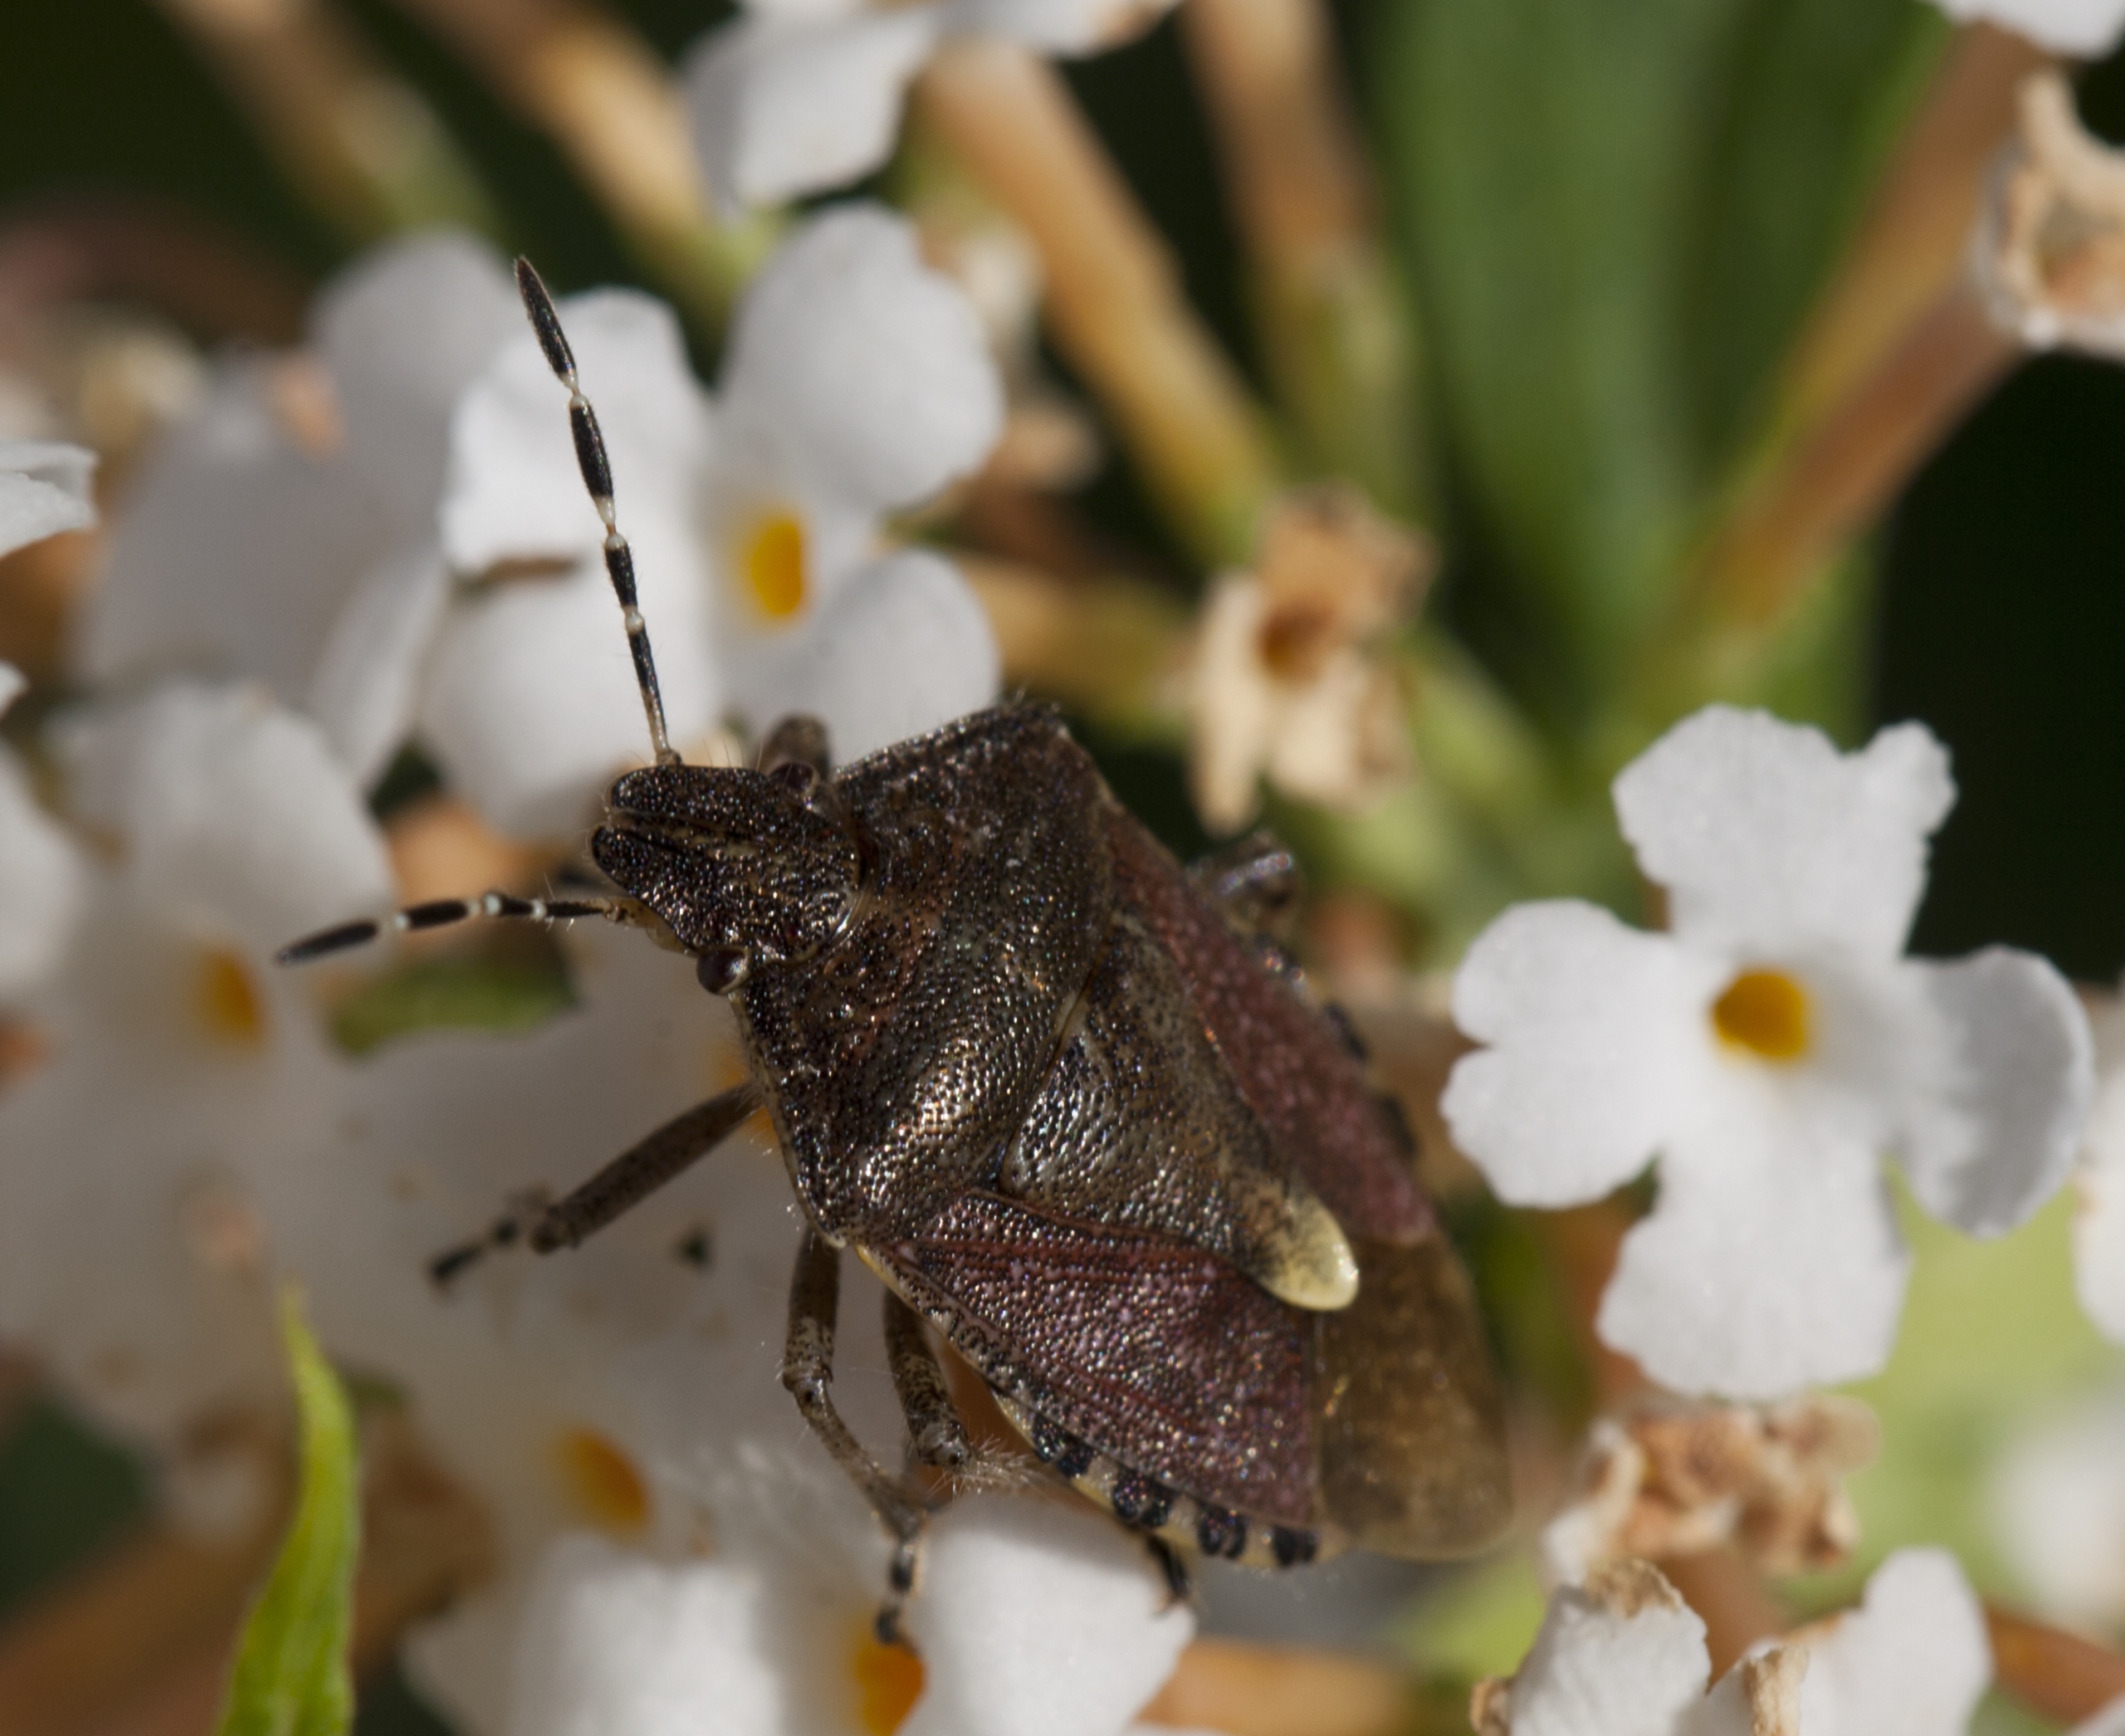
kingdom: Animalia
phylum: Arthropoda
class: Insecta
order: Hemiptera
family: Pentatomidae
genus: Dolycoris
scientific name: Dolycoris baccarum
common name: Almindelig bærtæge
